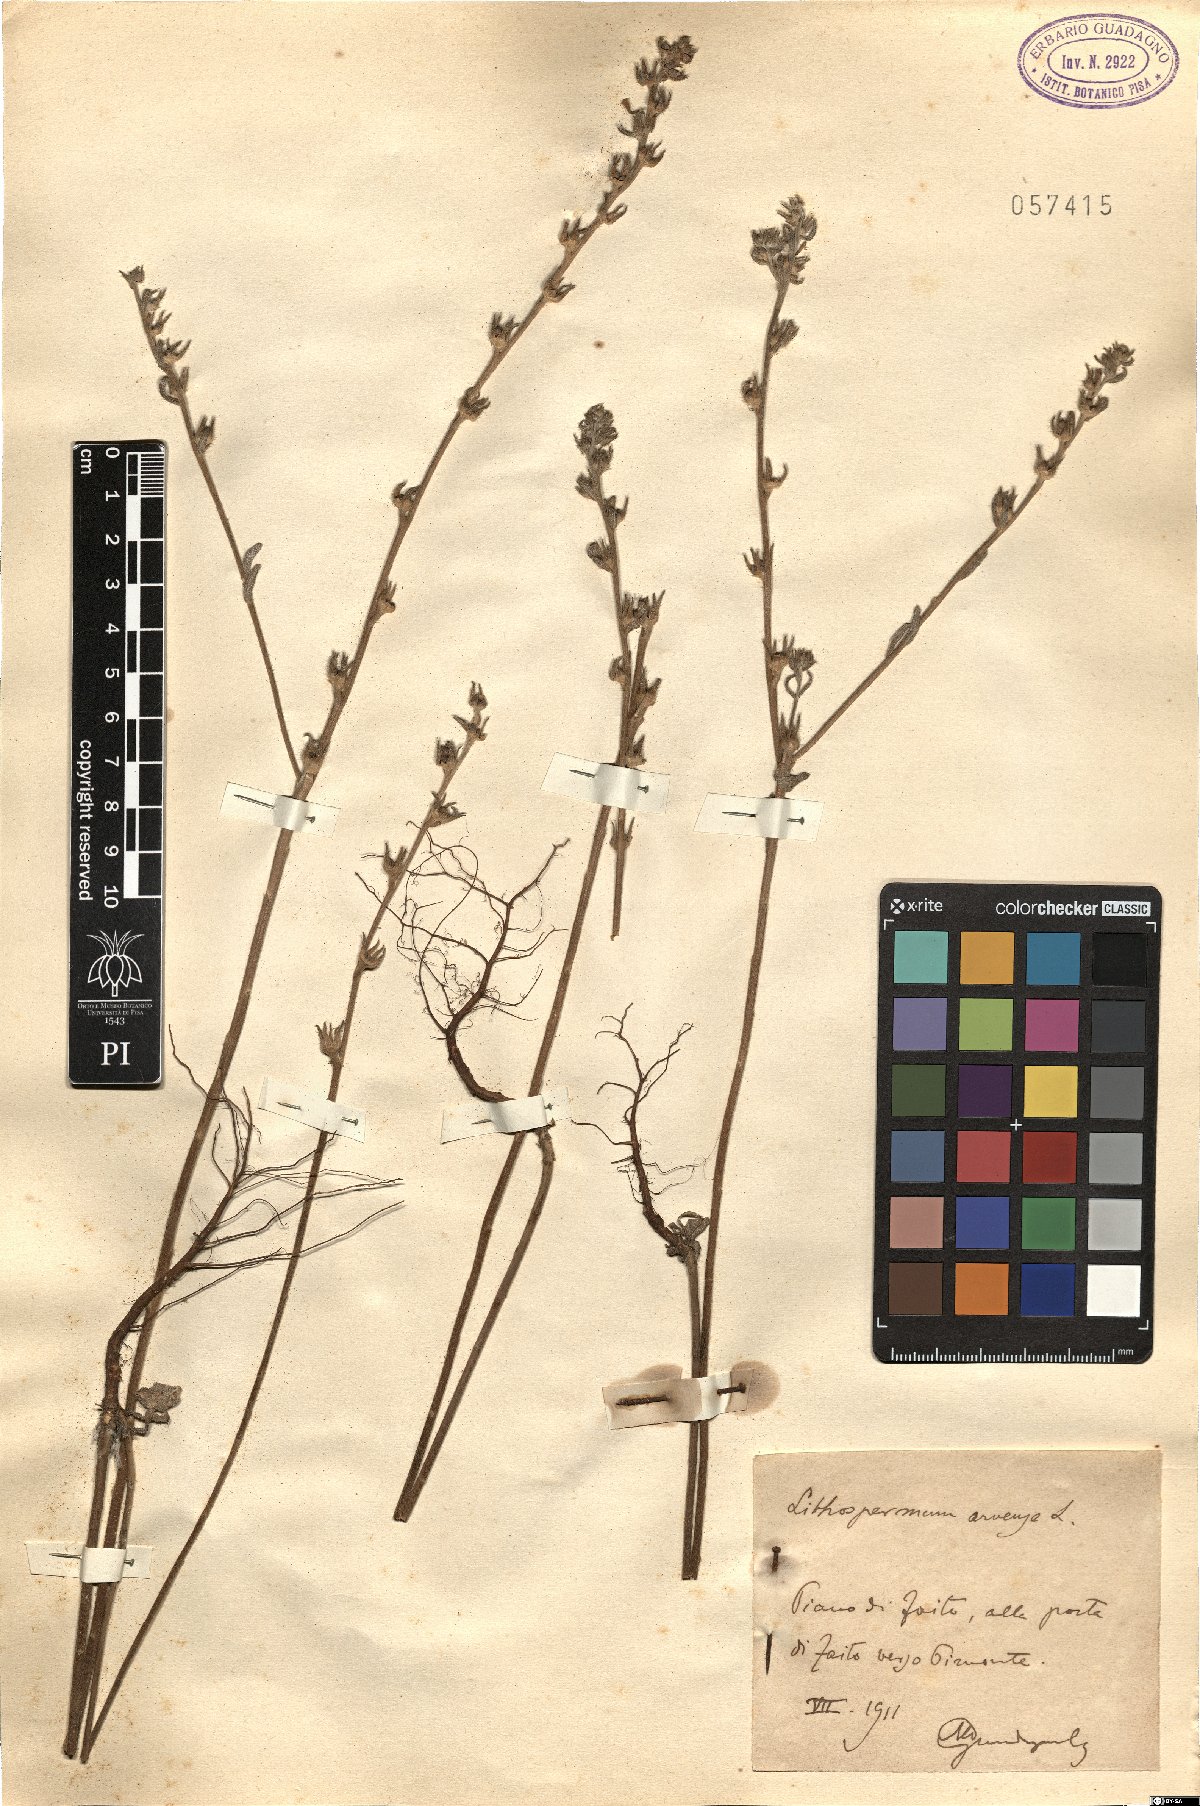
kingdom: Plantae
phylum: Tracheophyta
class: Magnoliopsida
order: Boraginales
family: Boraginaceae
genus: Buglossoides
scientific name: Buglossoides arvensis
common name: Corn gromwell
